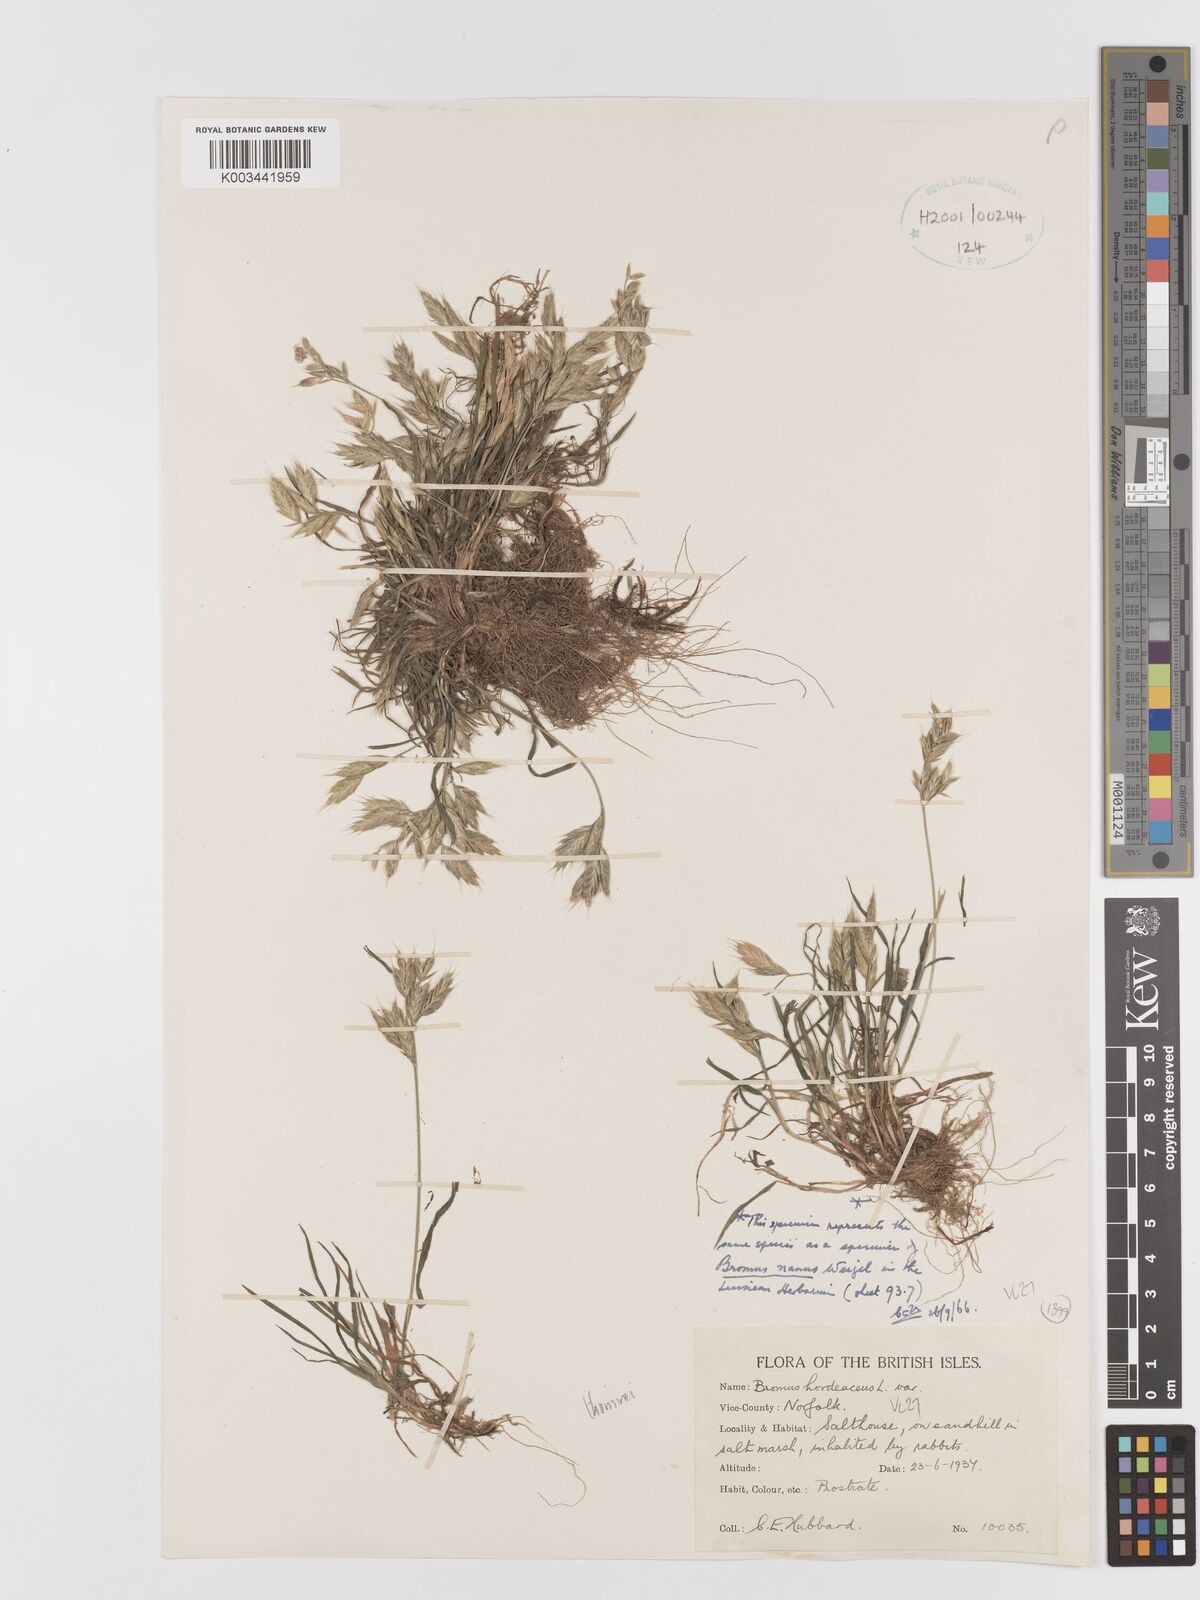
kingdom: Plantae
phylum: Tracheophyta
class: Liliopsida
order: Poales
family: Poaceae
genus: Bromus
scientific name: Bromus hordeaceus
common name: Soft brome
